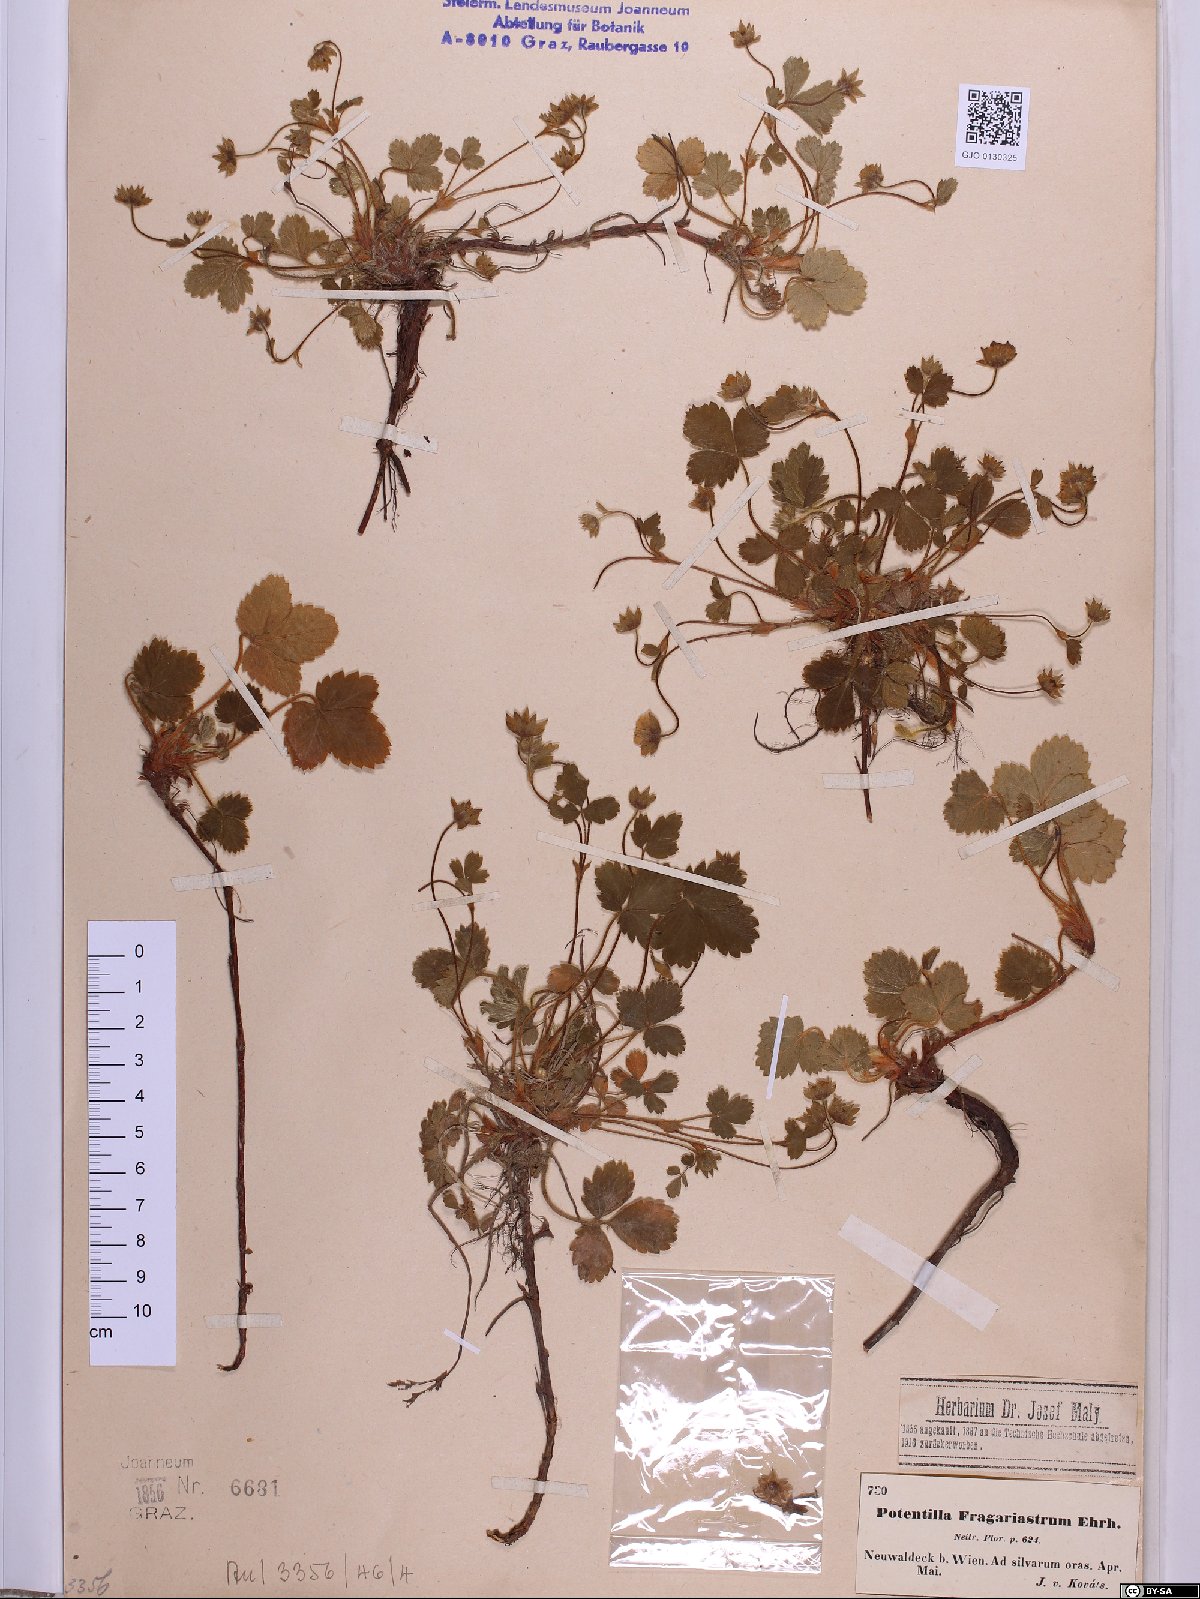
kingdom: Plantae
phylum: Tracheophyta
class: Magnoliopsida
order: Rosales
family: Rosaceae
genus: Potentilla
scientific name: Potentilla sterilis
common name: Barren strawberry
